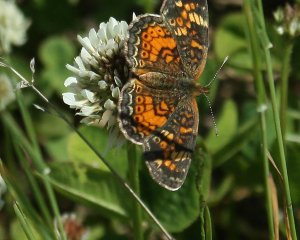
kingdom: Animalia
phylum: Arthropoda
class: Insecta
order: Lepidoptera
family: Nymphalidae
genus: Phyciodes
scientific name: Phyciodes tharos
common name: Pearl Crescent
